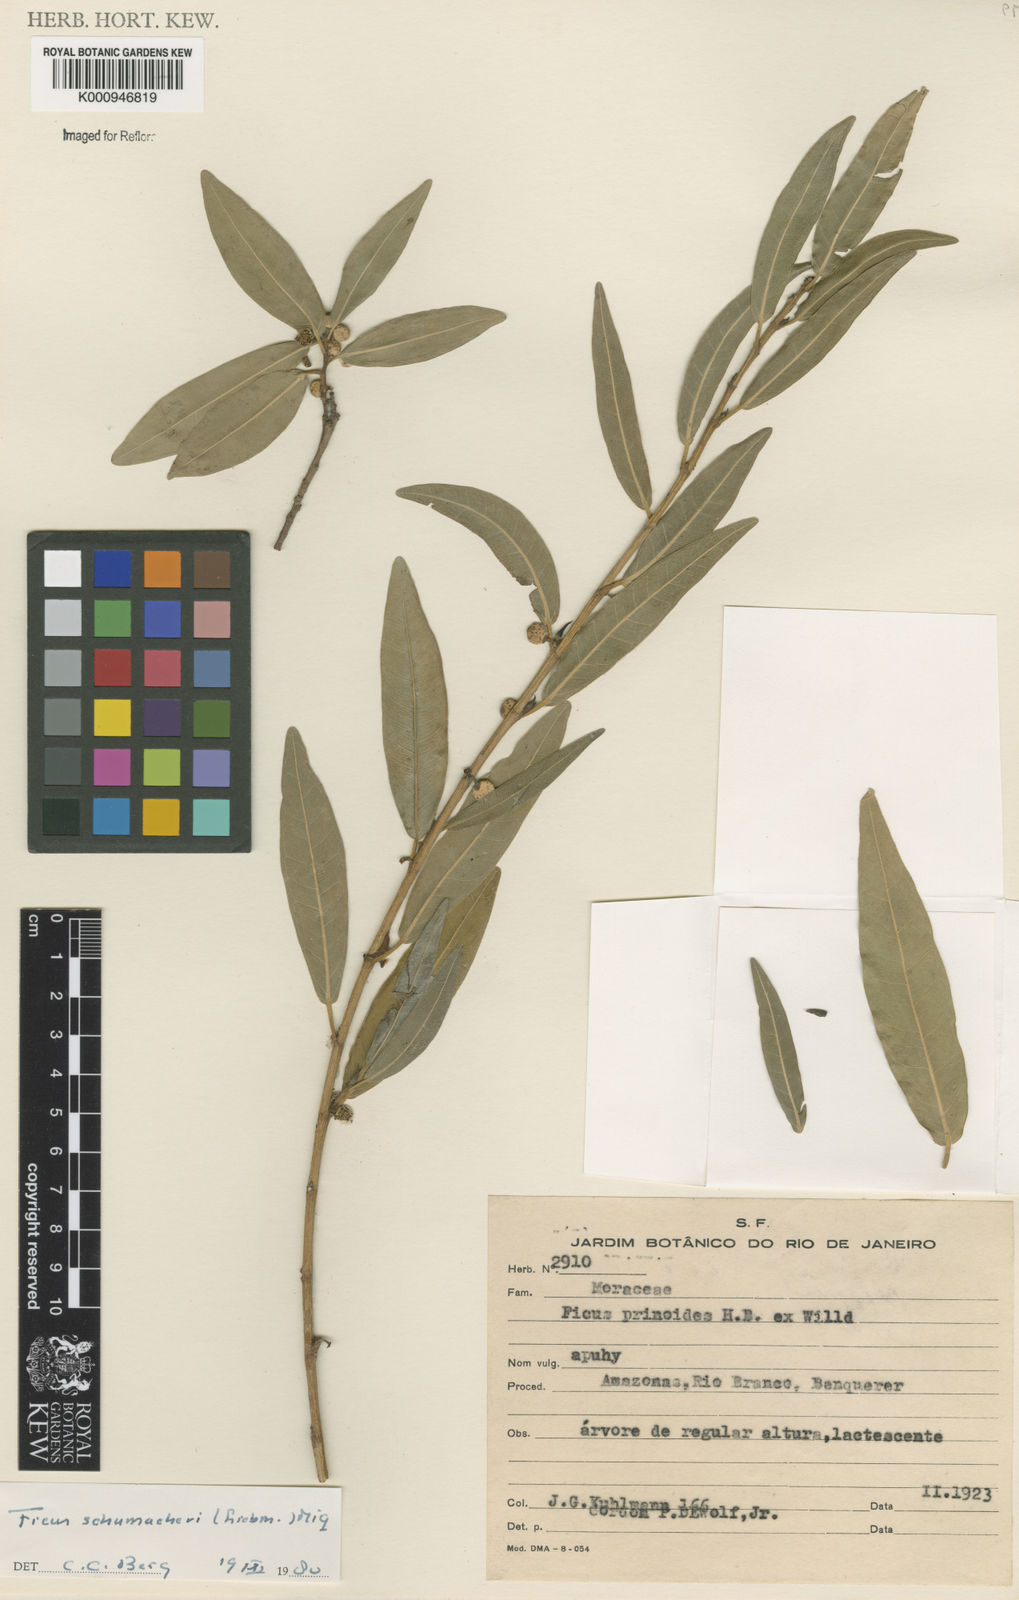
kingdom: Plantae
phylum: Tracheophyta
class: Magnoliopsida
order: Rosales
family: Moraceae
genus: Ficus
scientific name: Ficus schumacheri
